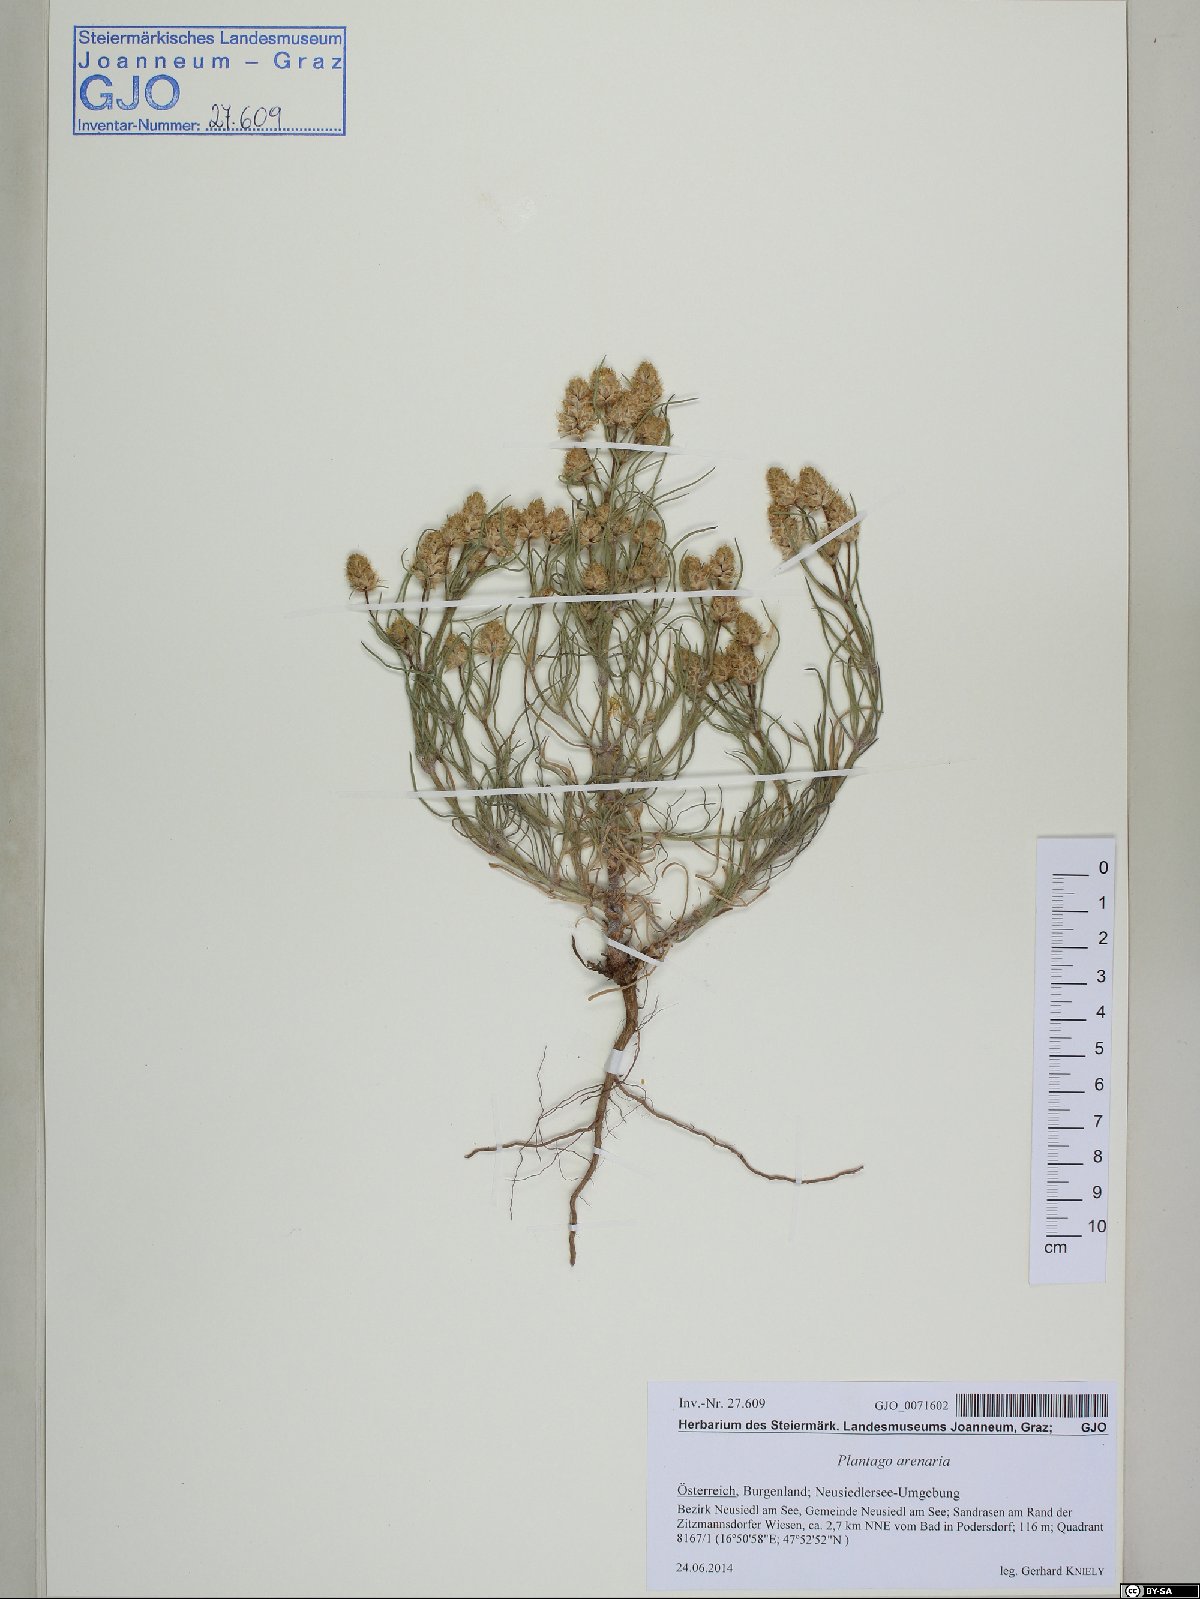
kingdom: Plantae
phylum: Tracheophyta
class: Magnoliopsida
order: Lamiales
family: Plantaginaceae
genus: Plantago
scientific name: Plantago arenaria
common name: Branched plantain
